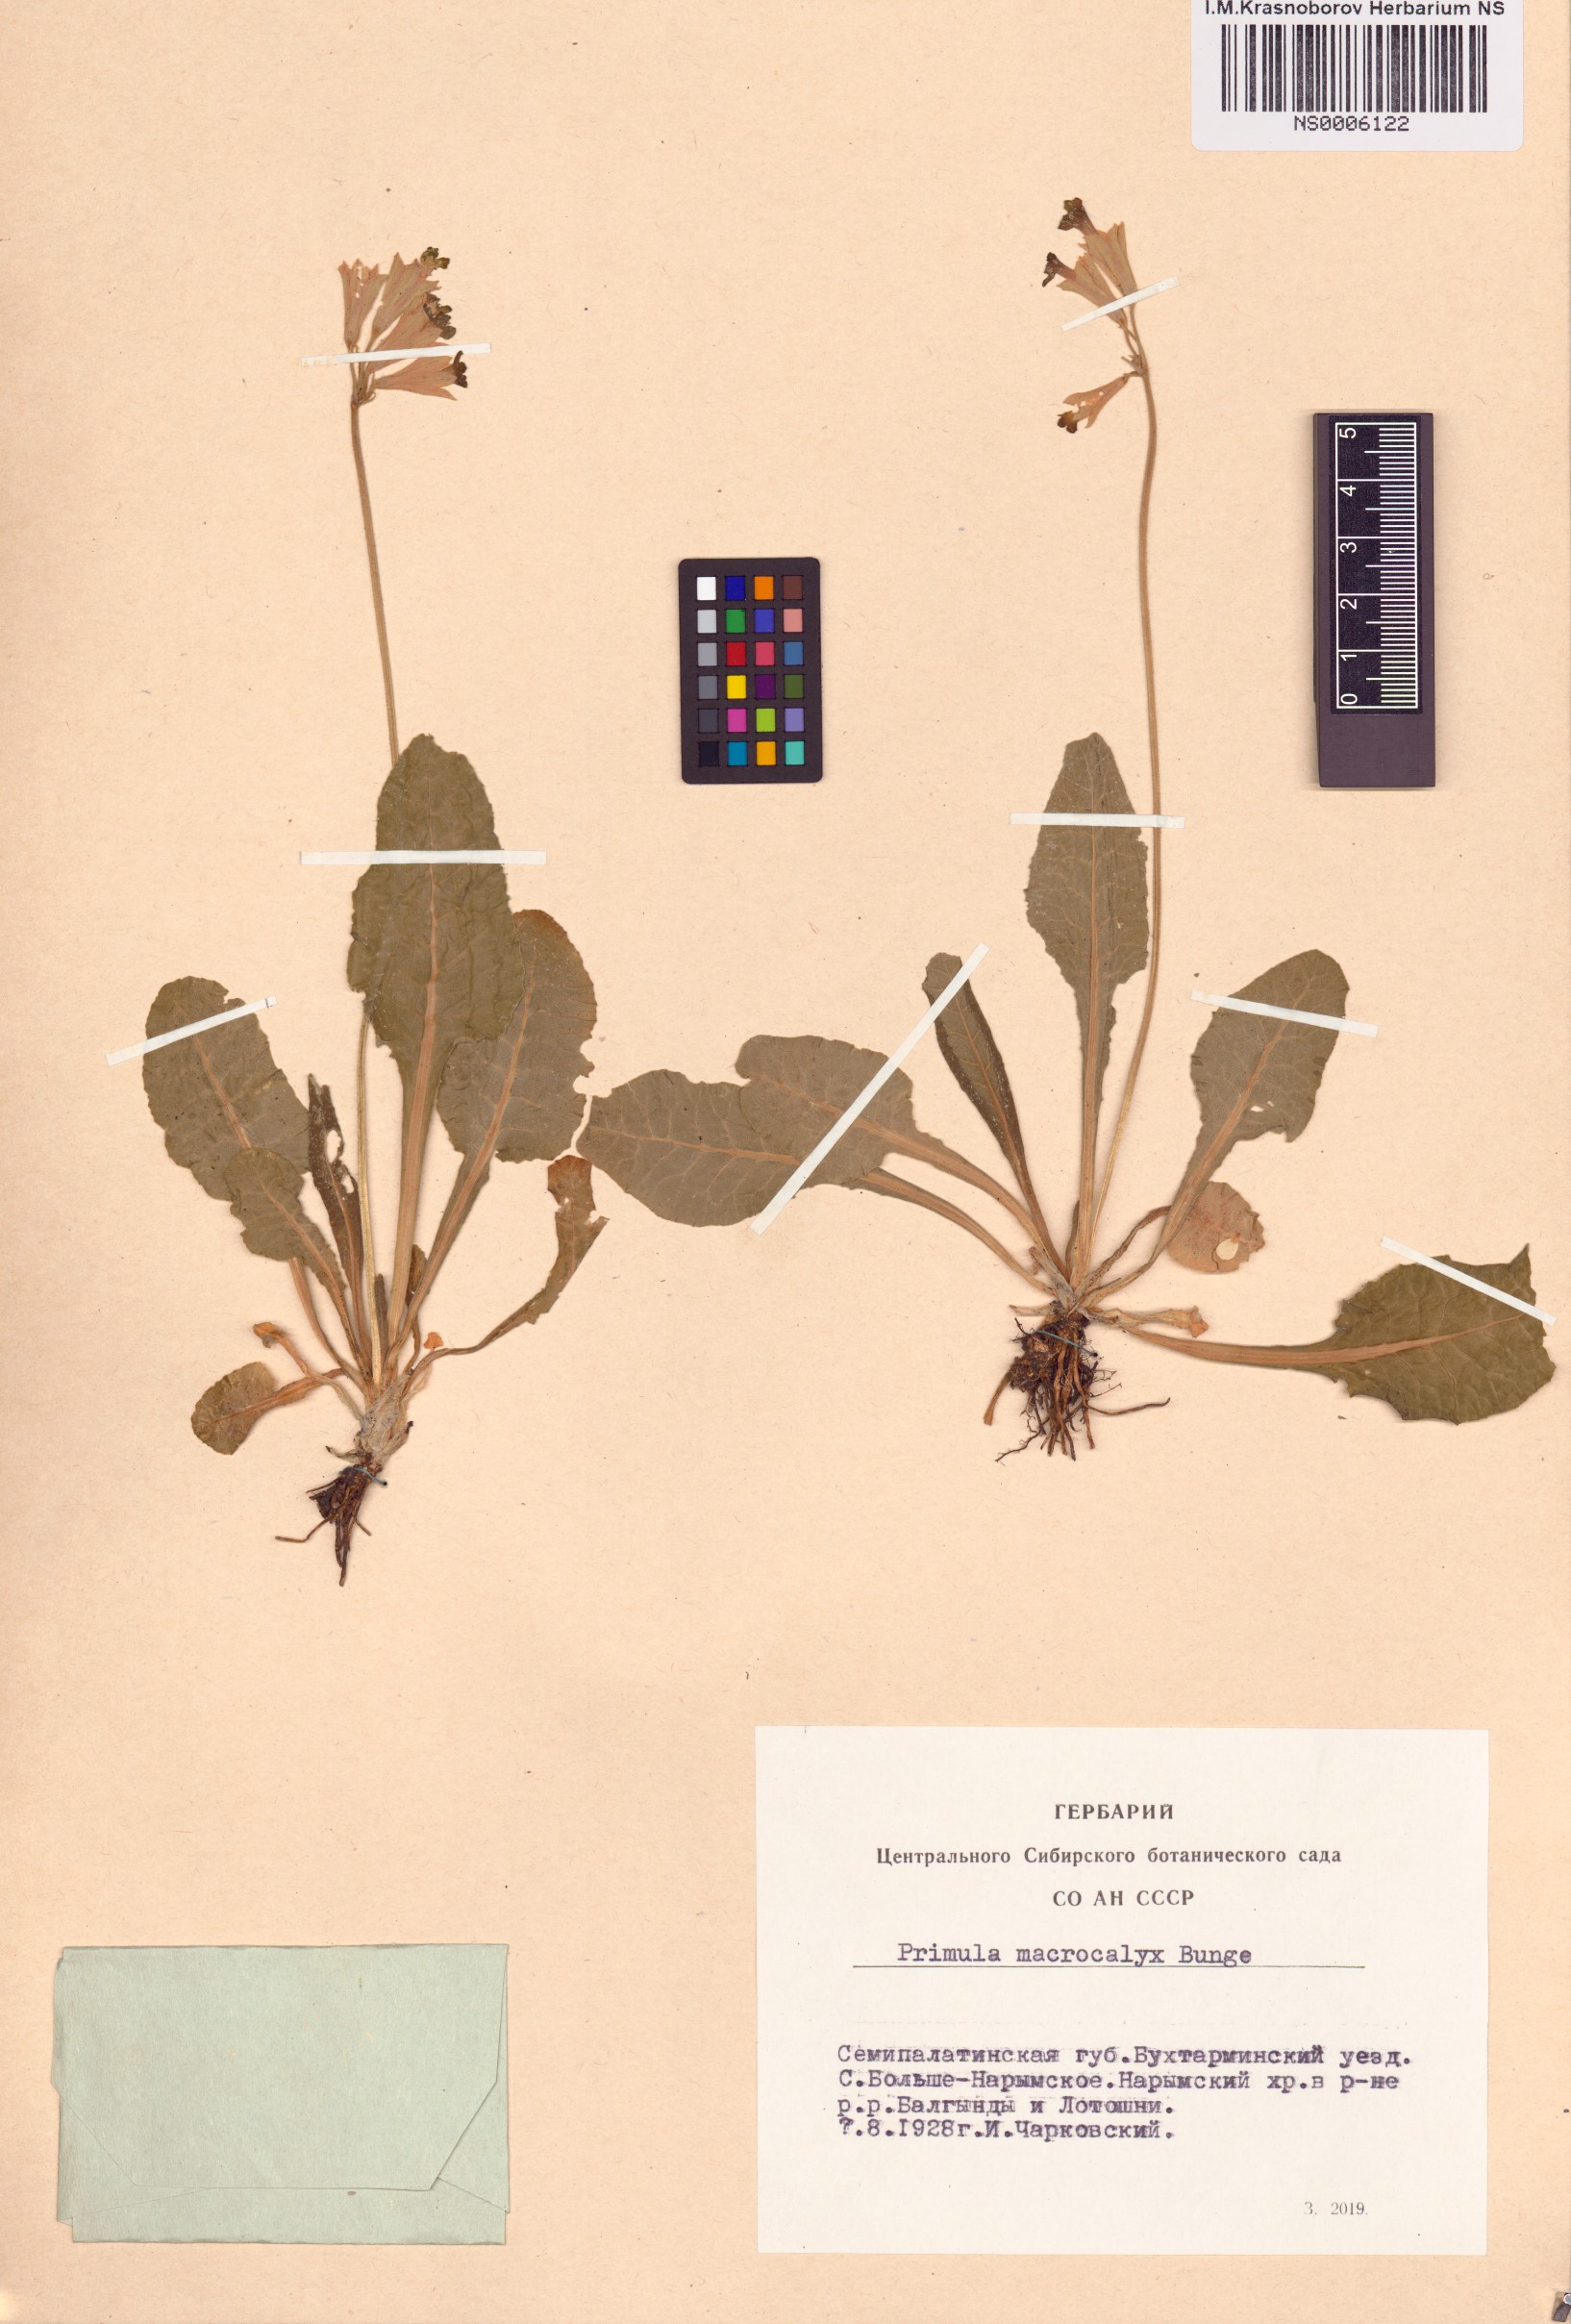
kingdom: Plantae
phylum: Tracheophyta
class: Magnoliopsida
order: Ericales
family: Primulaceae
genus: Primula
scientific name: Primula veris
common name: Cowslip
